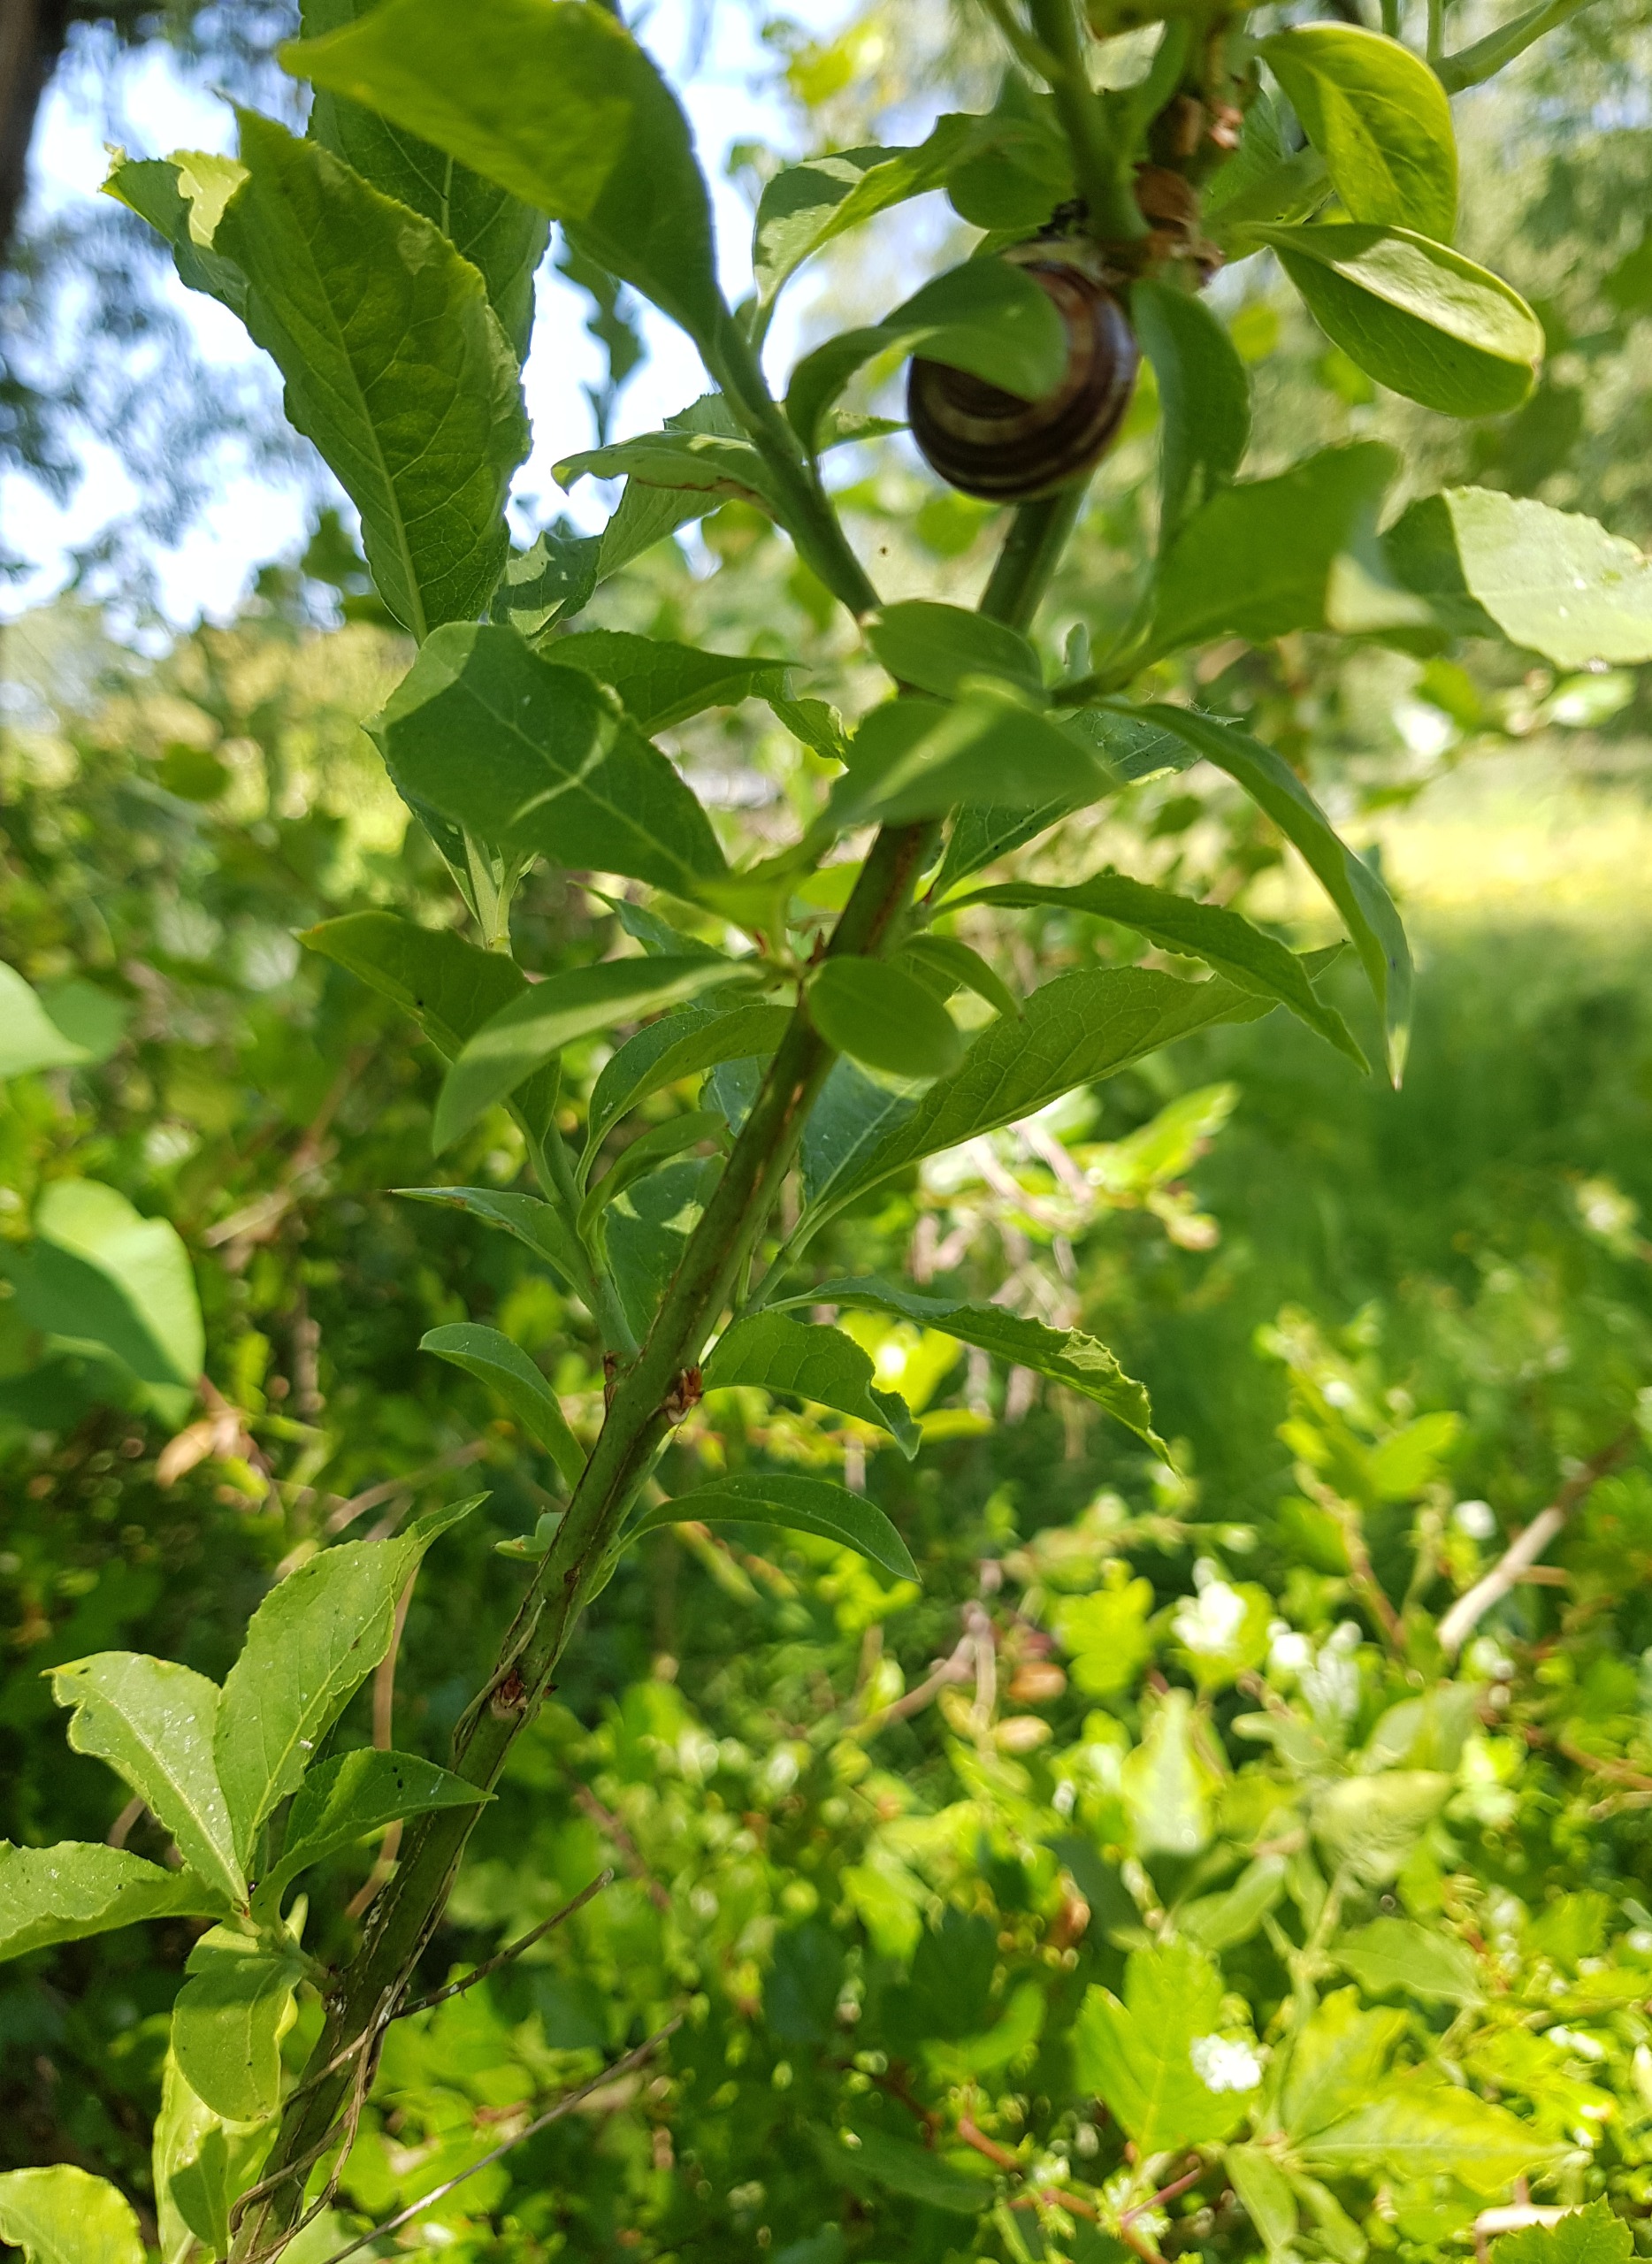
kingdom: Plantae
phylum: Tracheophyta
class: Magnoliopsida
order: Celastrales
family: Celastraceae
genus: Euonymus
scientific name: Euonymus europaeus
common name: Benved
